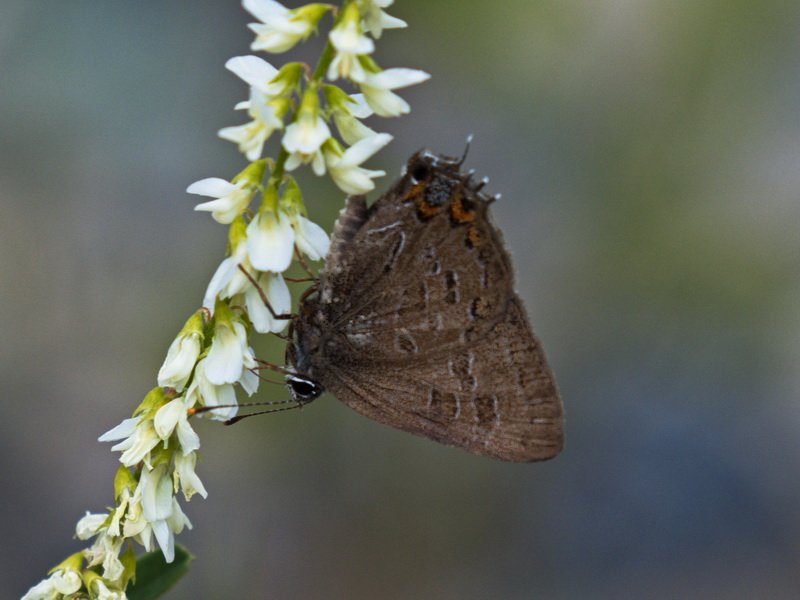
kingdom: Animalia
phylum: Arthropoda
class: Insecta
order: Lepidoptera
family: Lycaenidae
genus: Satyrium
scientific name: Satyrium liparops
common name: Striped Hairstreak
